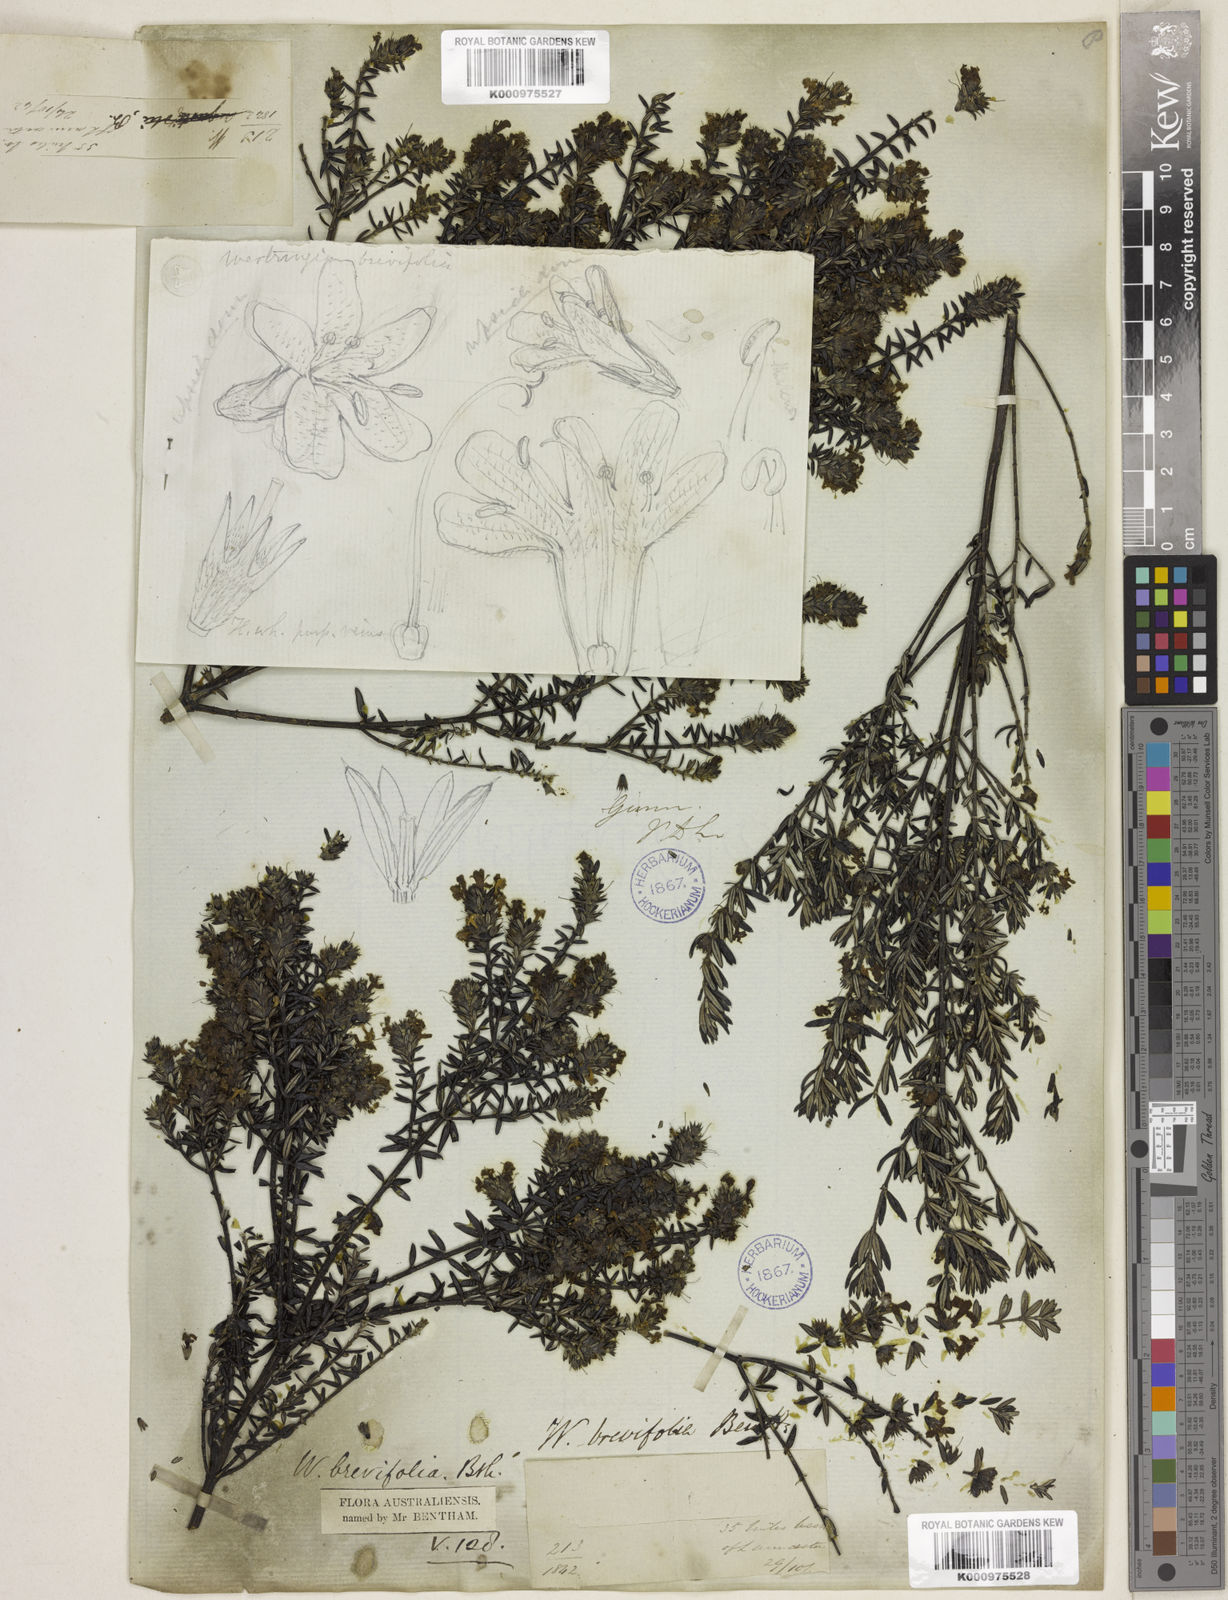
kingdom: Plantae
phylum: Tracheophyta
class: Magnoliopsida
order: Lamiales
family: Lamiaceae
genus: Westringia
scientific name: Westringia brevifolia
